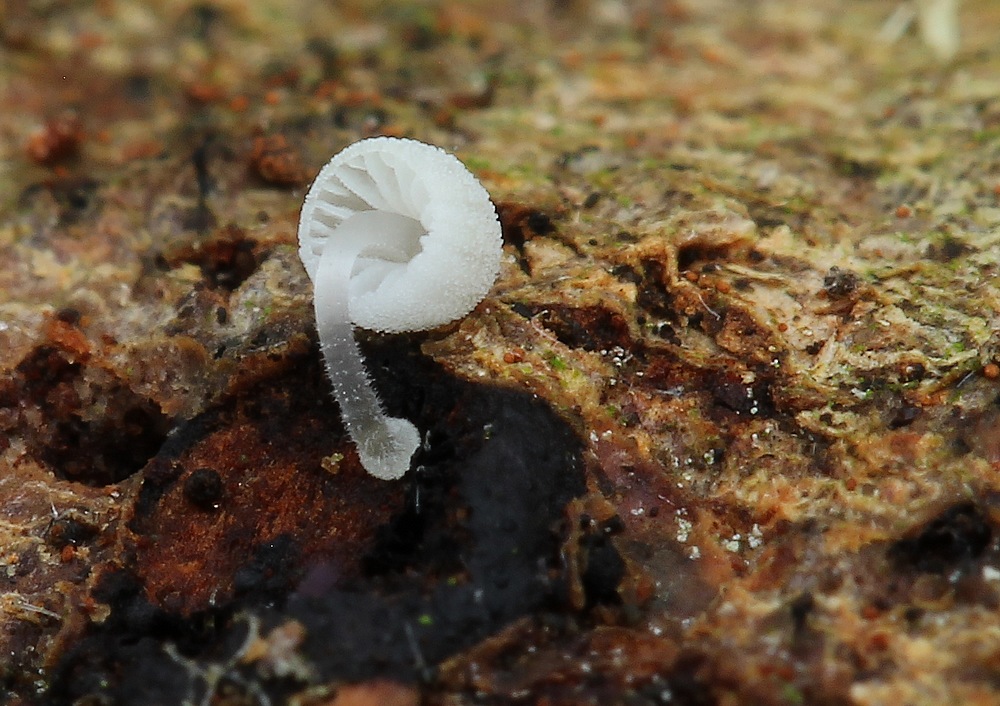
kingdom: Fungi
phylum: Basidiomycota
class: Agaricomycetes
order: Agaricales
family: Mycenaceae
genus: Mycena
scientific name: Mycena tenerrima
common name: pudret huesvamp
